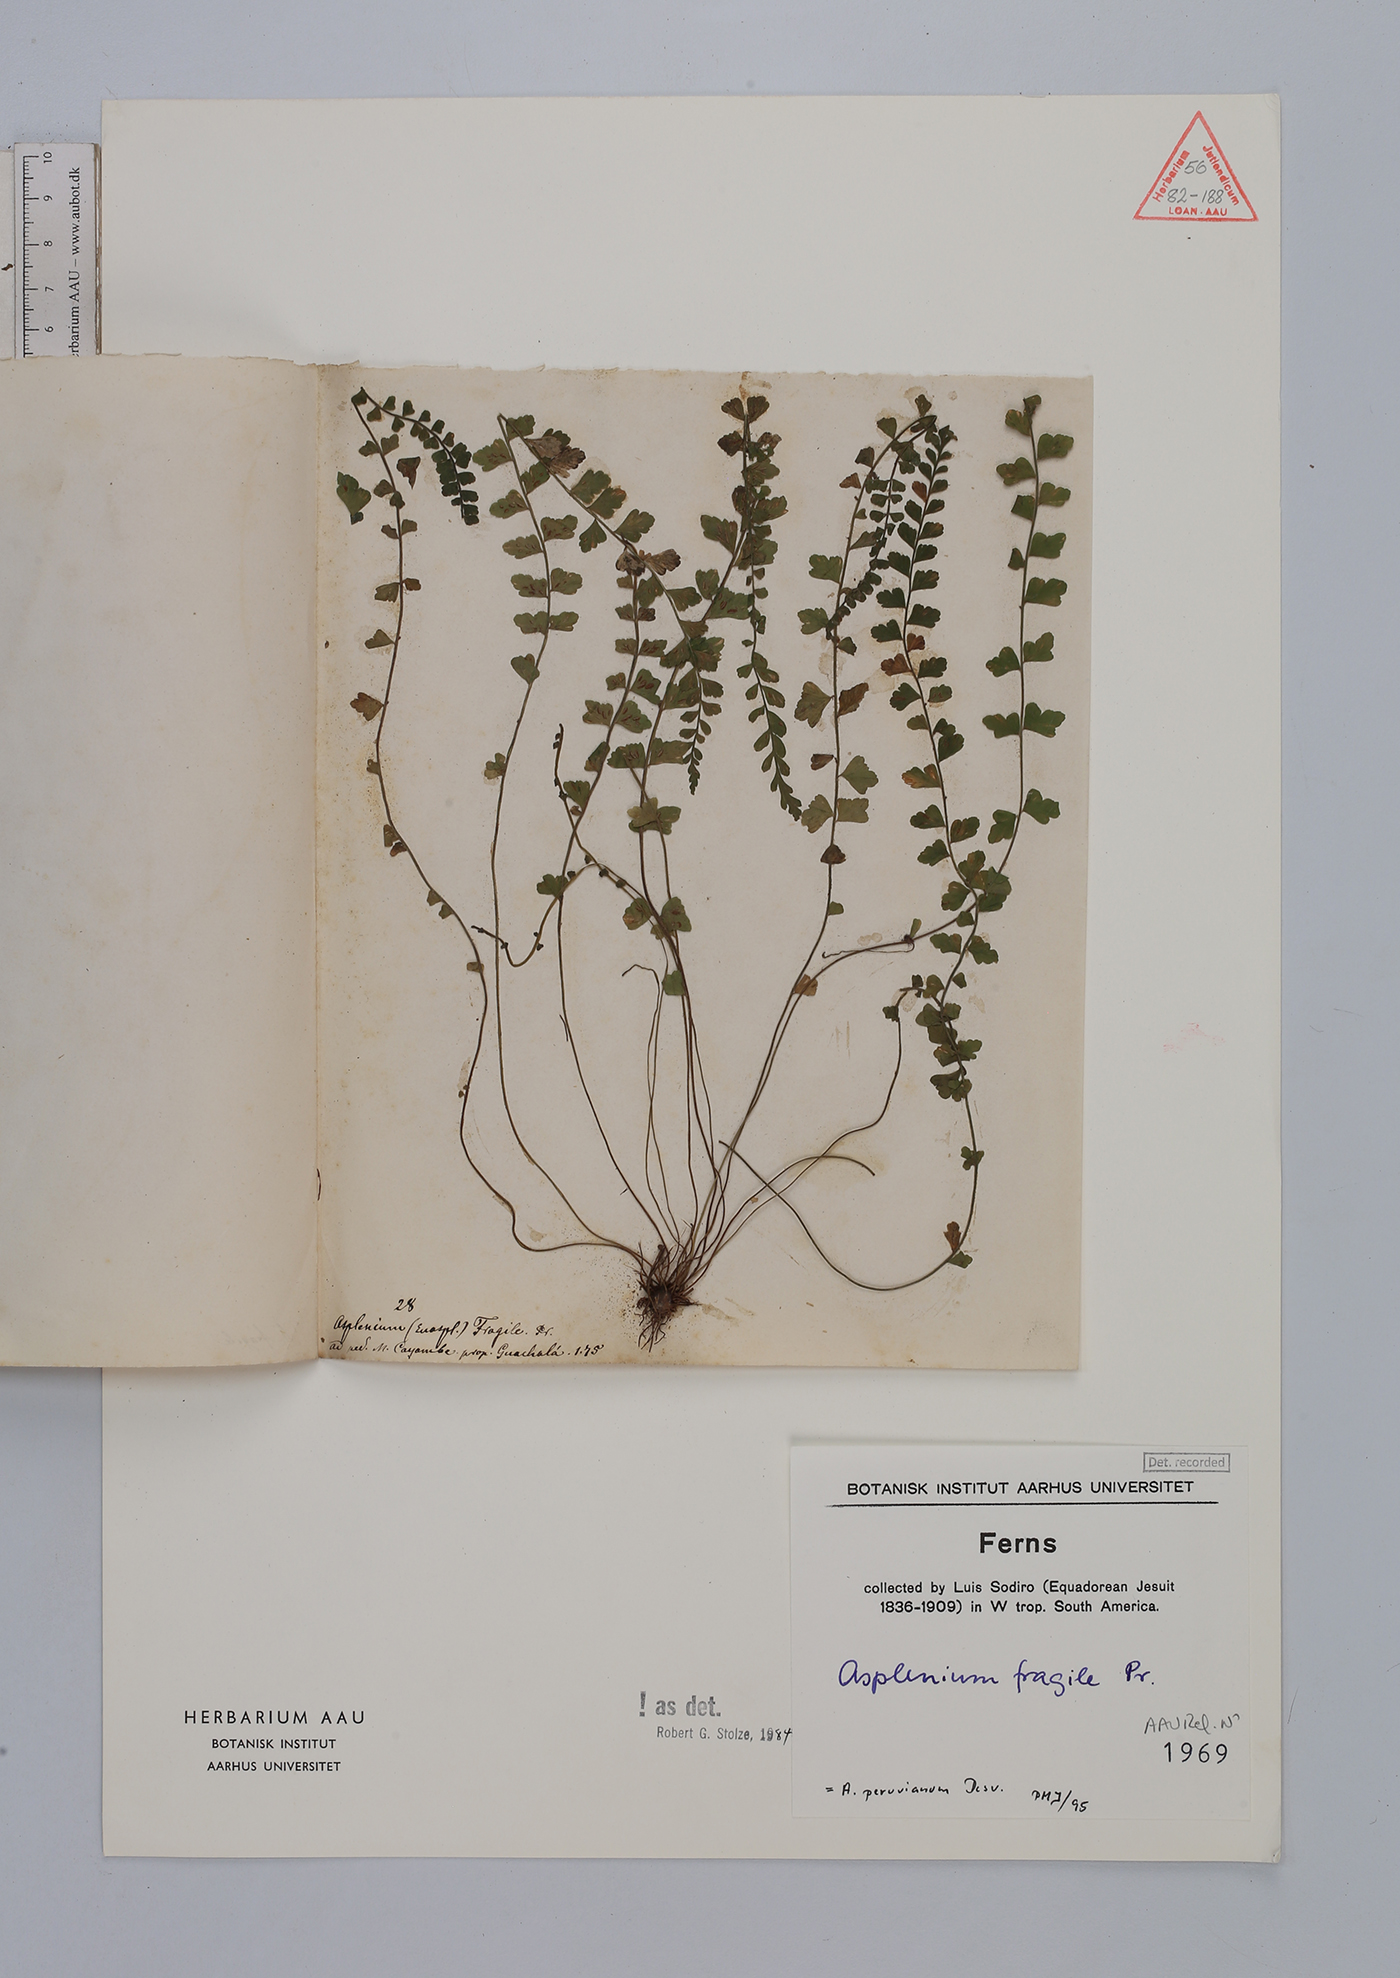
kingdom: Plantae
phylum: Tracheophyta
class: Polypodiopsida
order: Polypodiales
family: Aspleniaceae
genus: Asplenium
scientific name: Asplenium peruvianum
